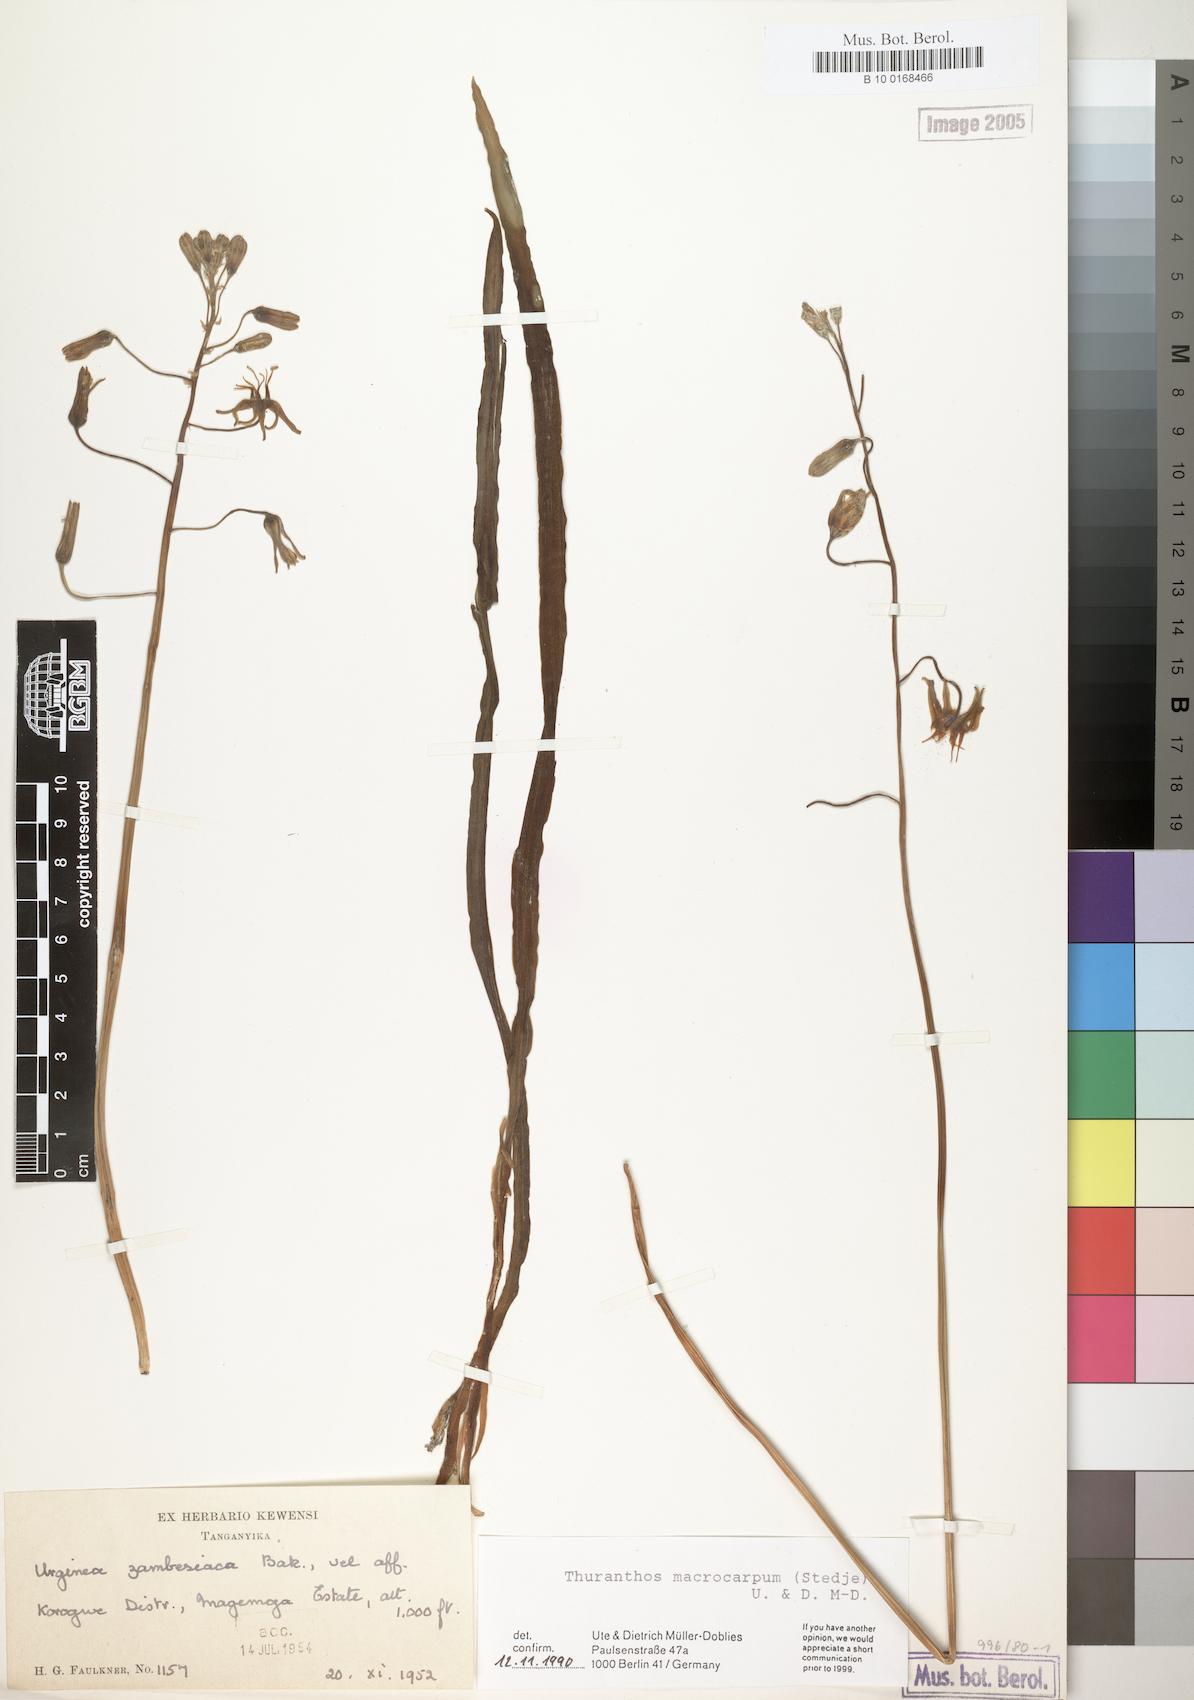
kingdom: Plantae
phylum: Tracheophyta
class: Liliopsida
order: Asparagales
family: Asparagaceae
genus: Drimia
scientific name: Drimia basutica
